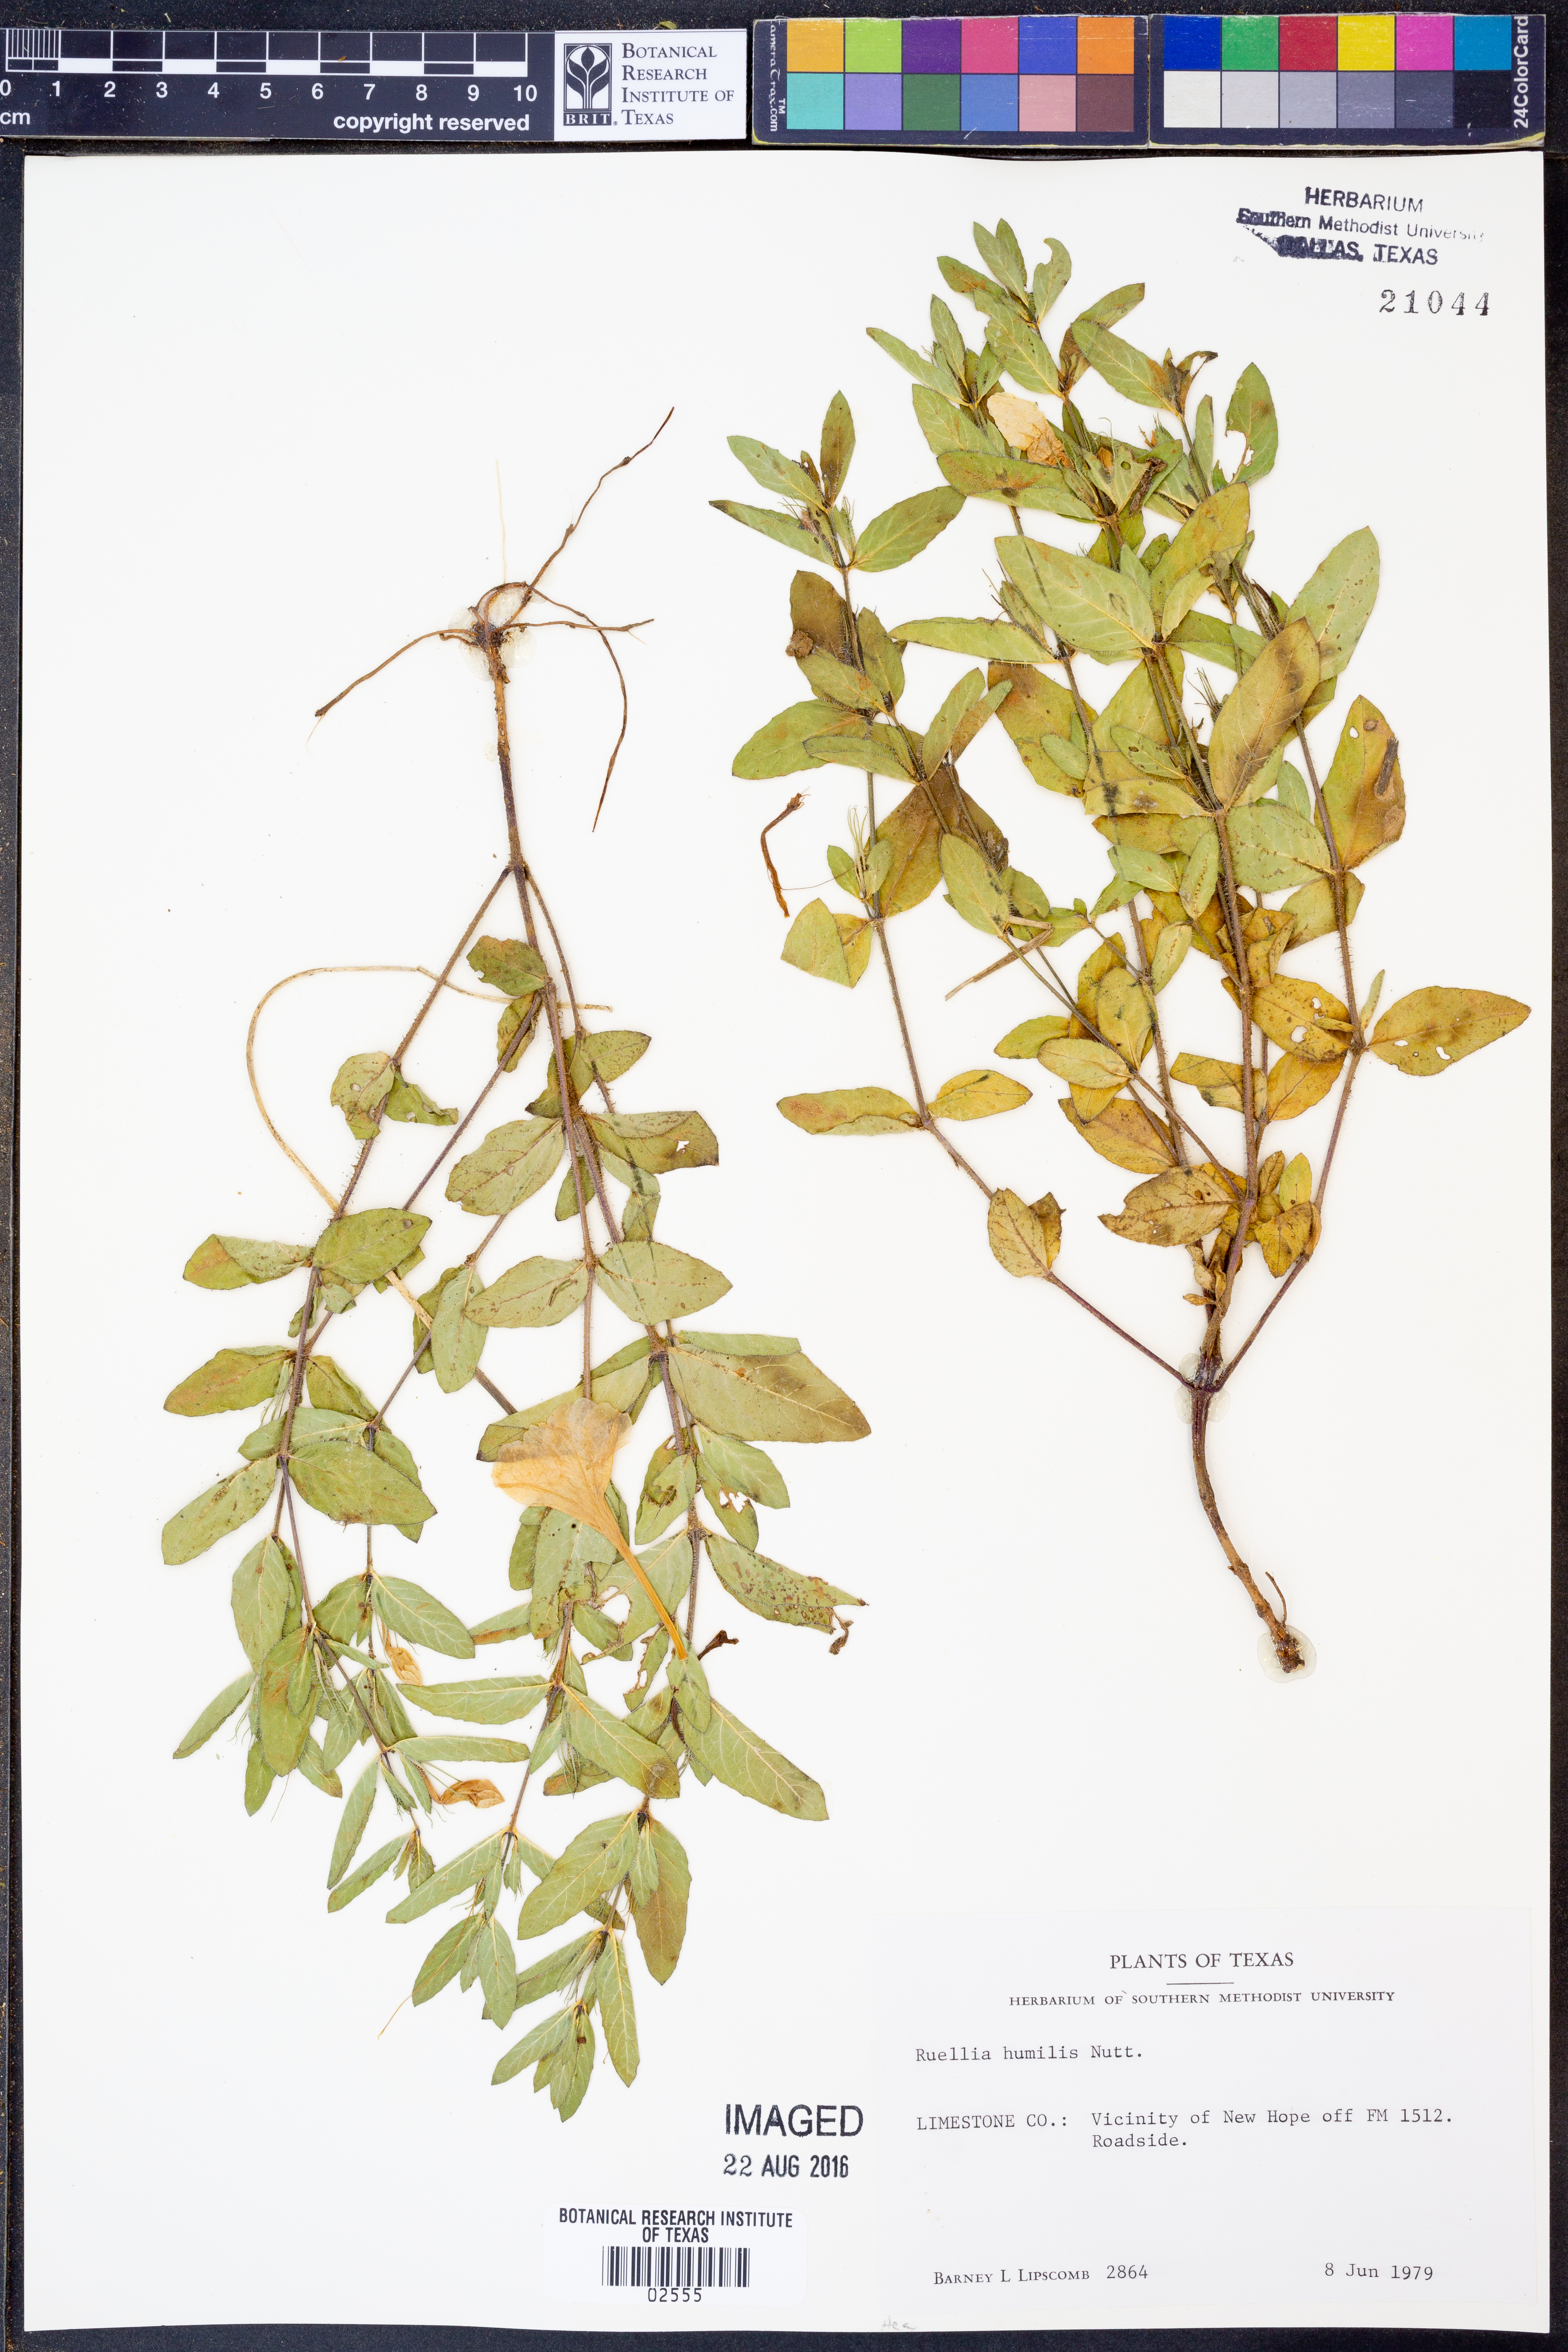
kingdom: Plantae
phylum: Tracheophyta
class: Magnoliopsida
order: Lamiales
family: Acanthaceae
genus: Ruellia
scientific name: Ruellia humilis
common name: Fringe-leaf ruellia
